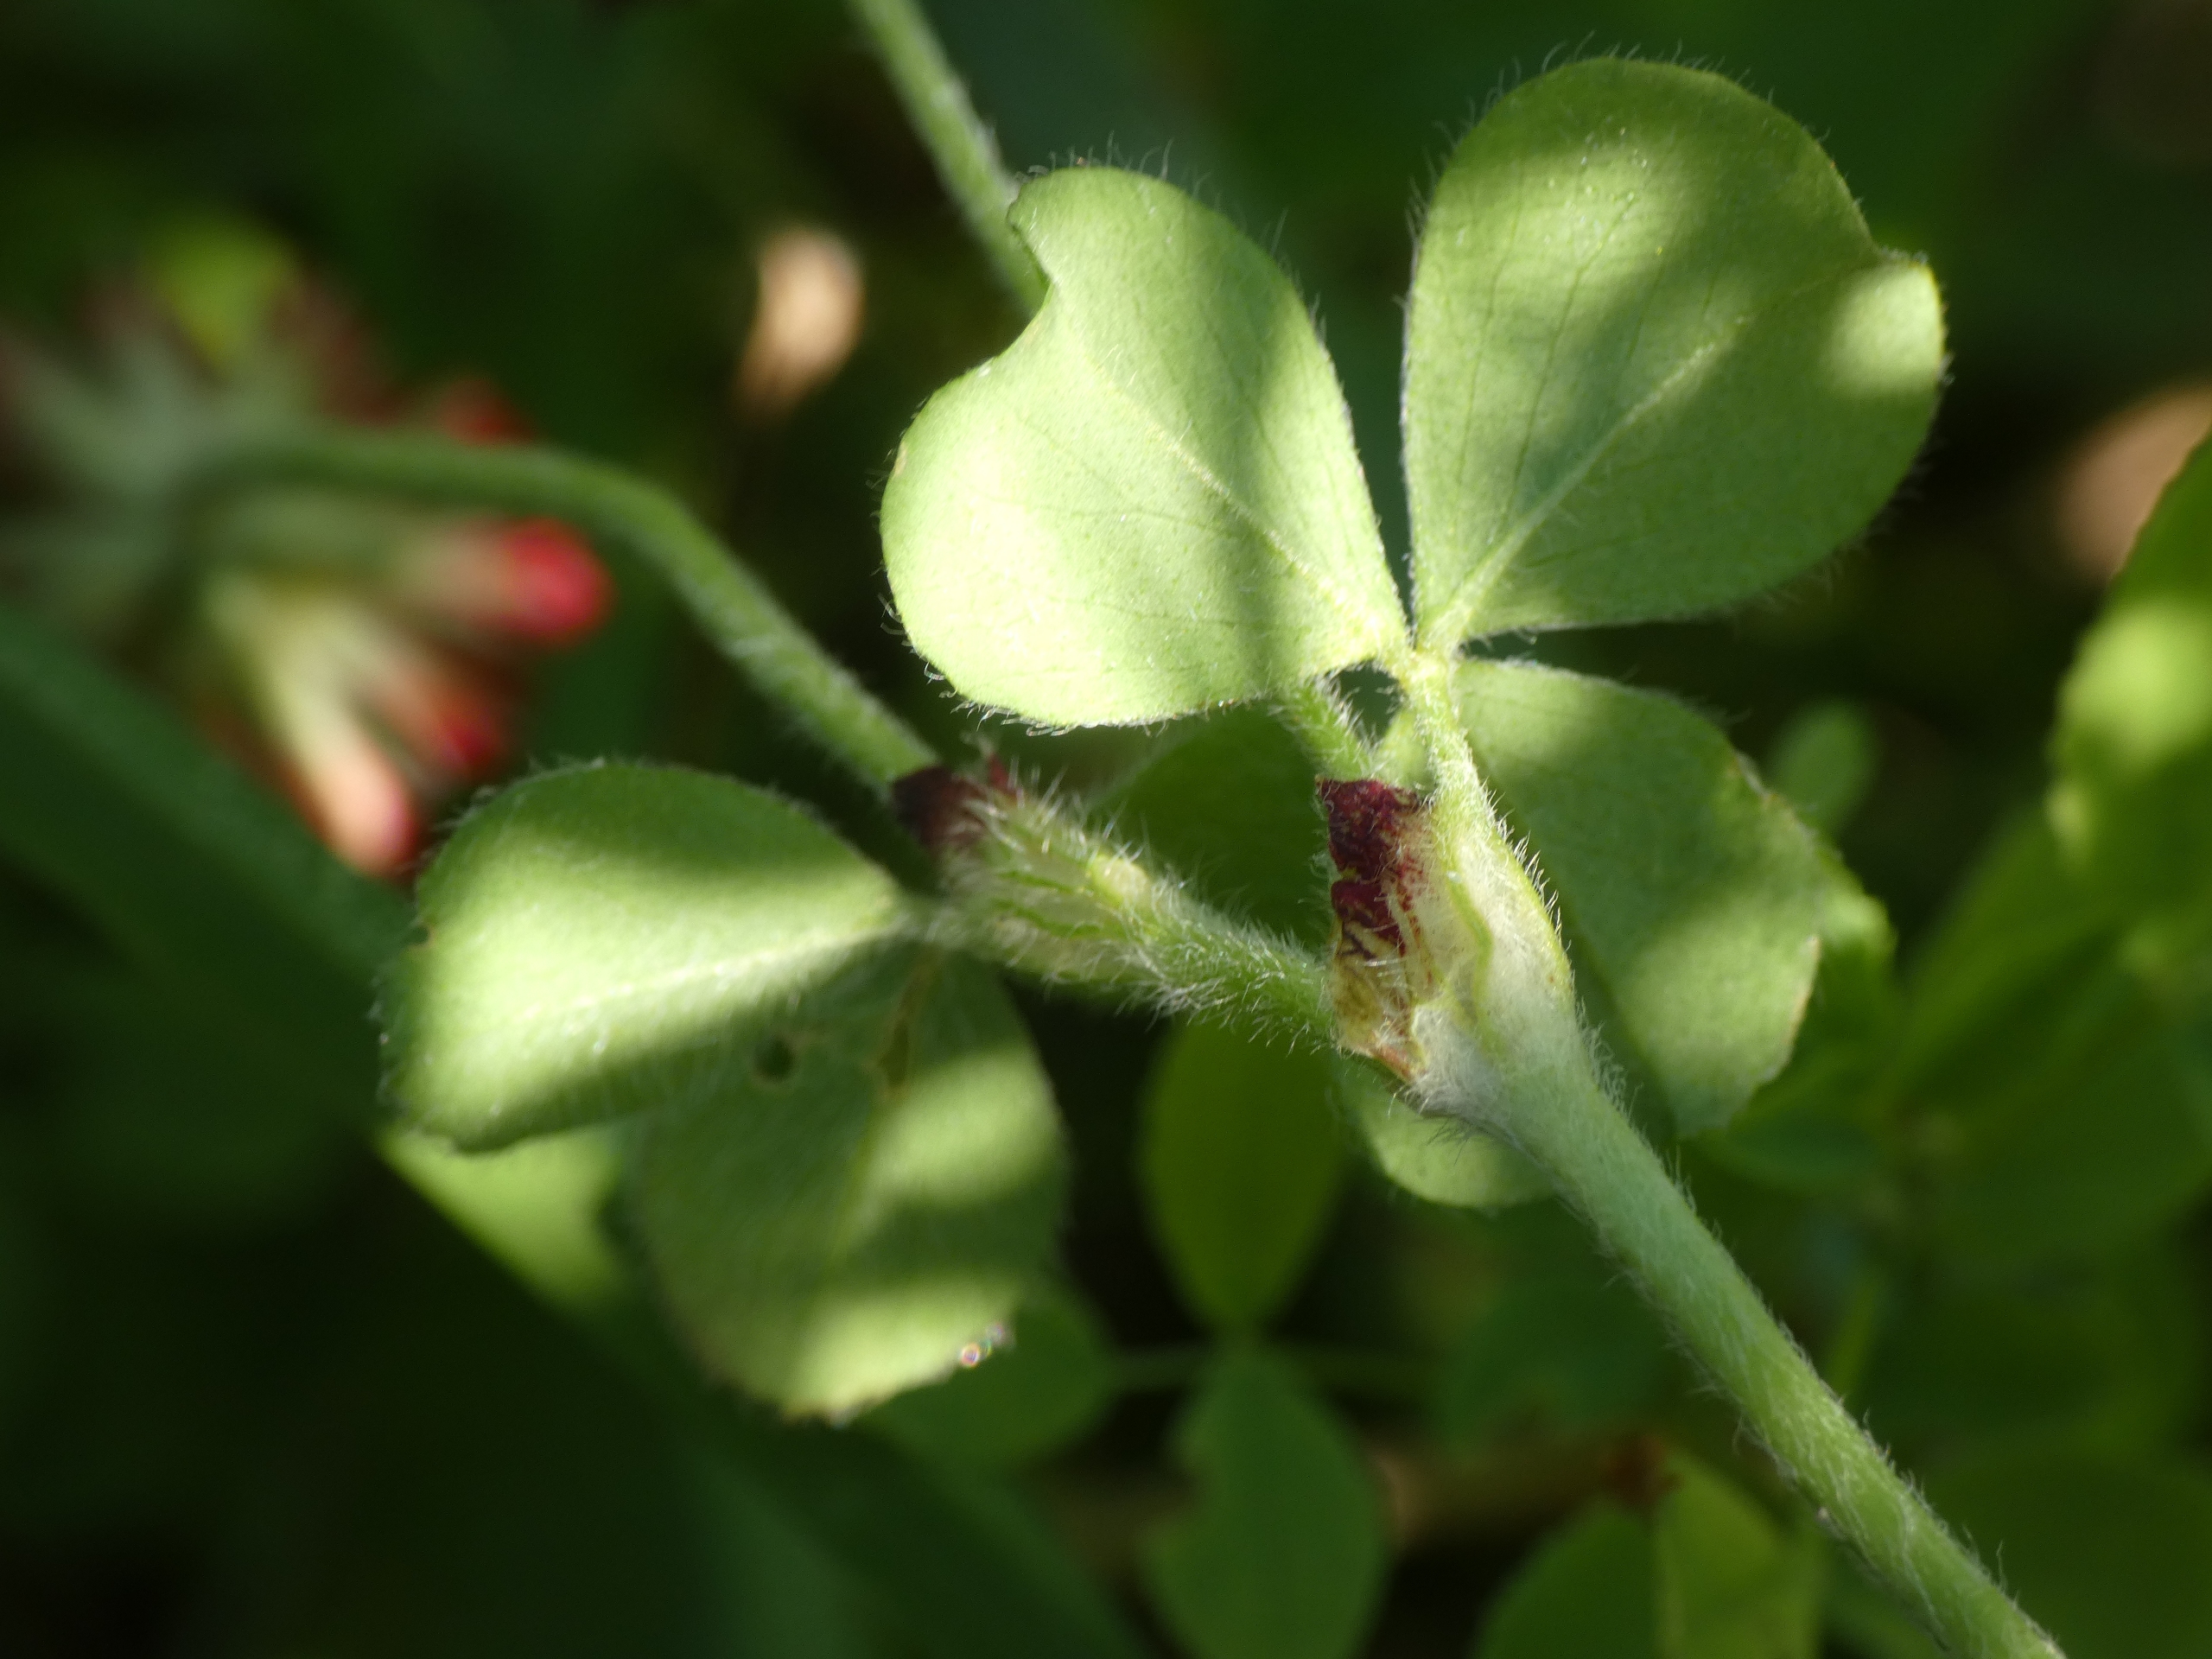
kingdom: Plantae
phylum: Tracheophyta
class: Magnoliopsida
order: Fabales
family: Fabaceae
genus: Trifolium
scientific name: Trifolium incarnatum
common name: Blod-kløver
